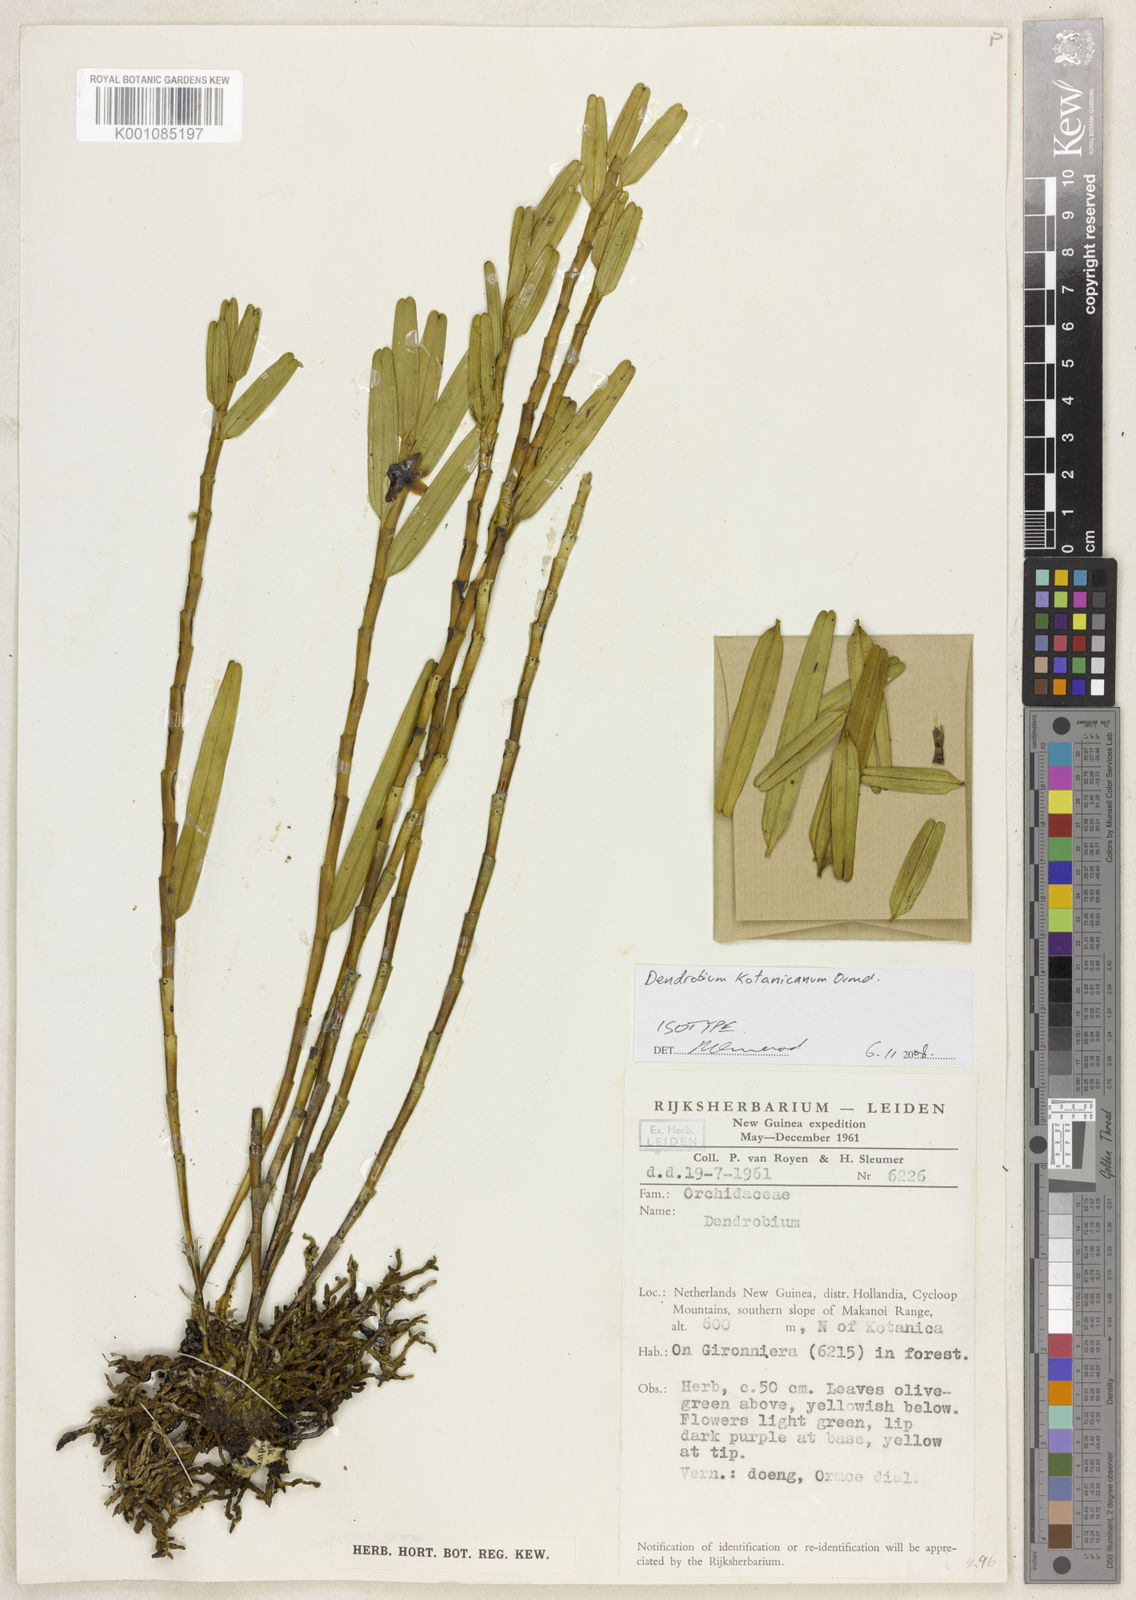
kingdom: Plantae
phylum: Tracheophyta
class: Liliopsida
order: Asparagales
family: Orchidaceae
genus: Dendrobium
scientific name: Dendrobium kotanicanum
